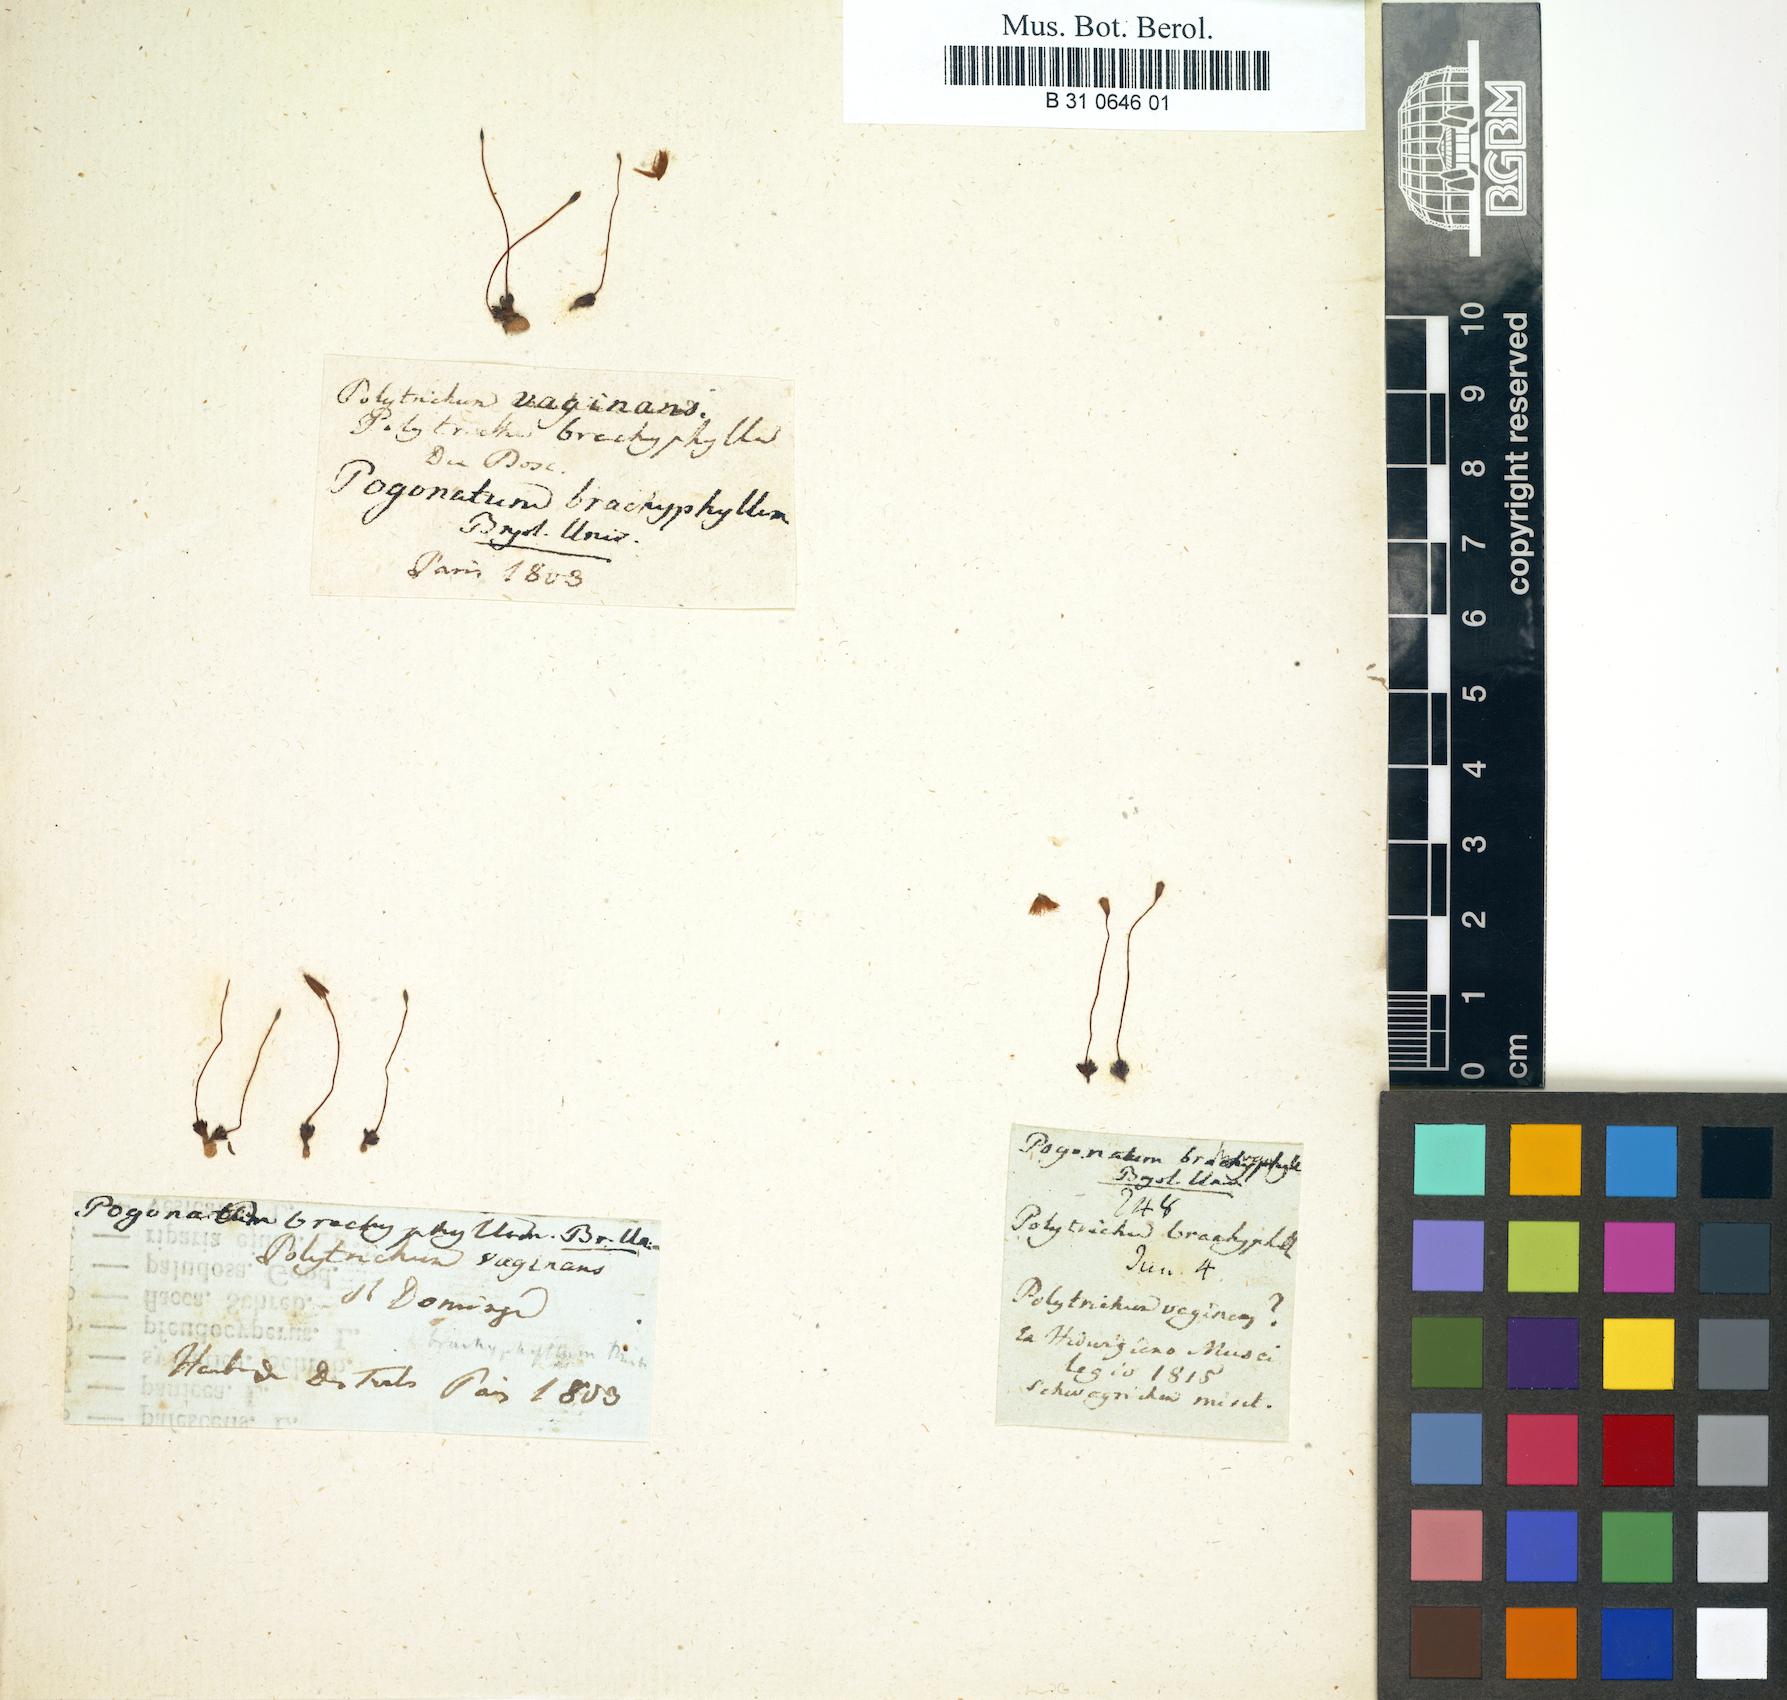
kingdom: Plantae
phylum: Bryophyta
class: Polytrichopsida
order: Polytrichales
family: Polytrichaceae
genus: Pogonatum
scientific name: Pogonatum brachyphyllum
